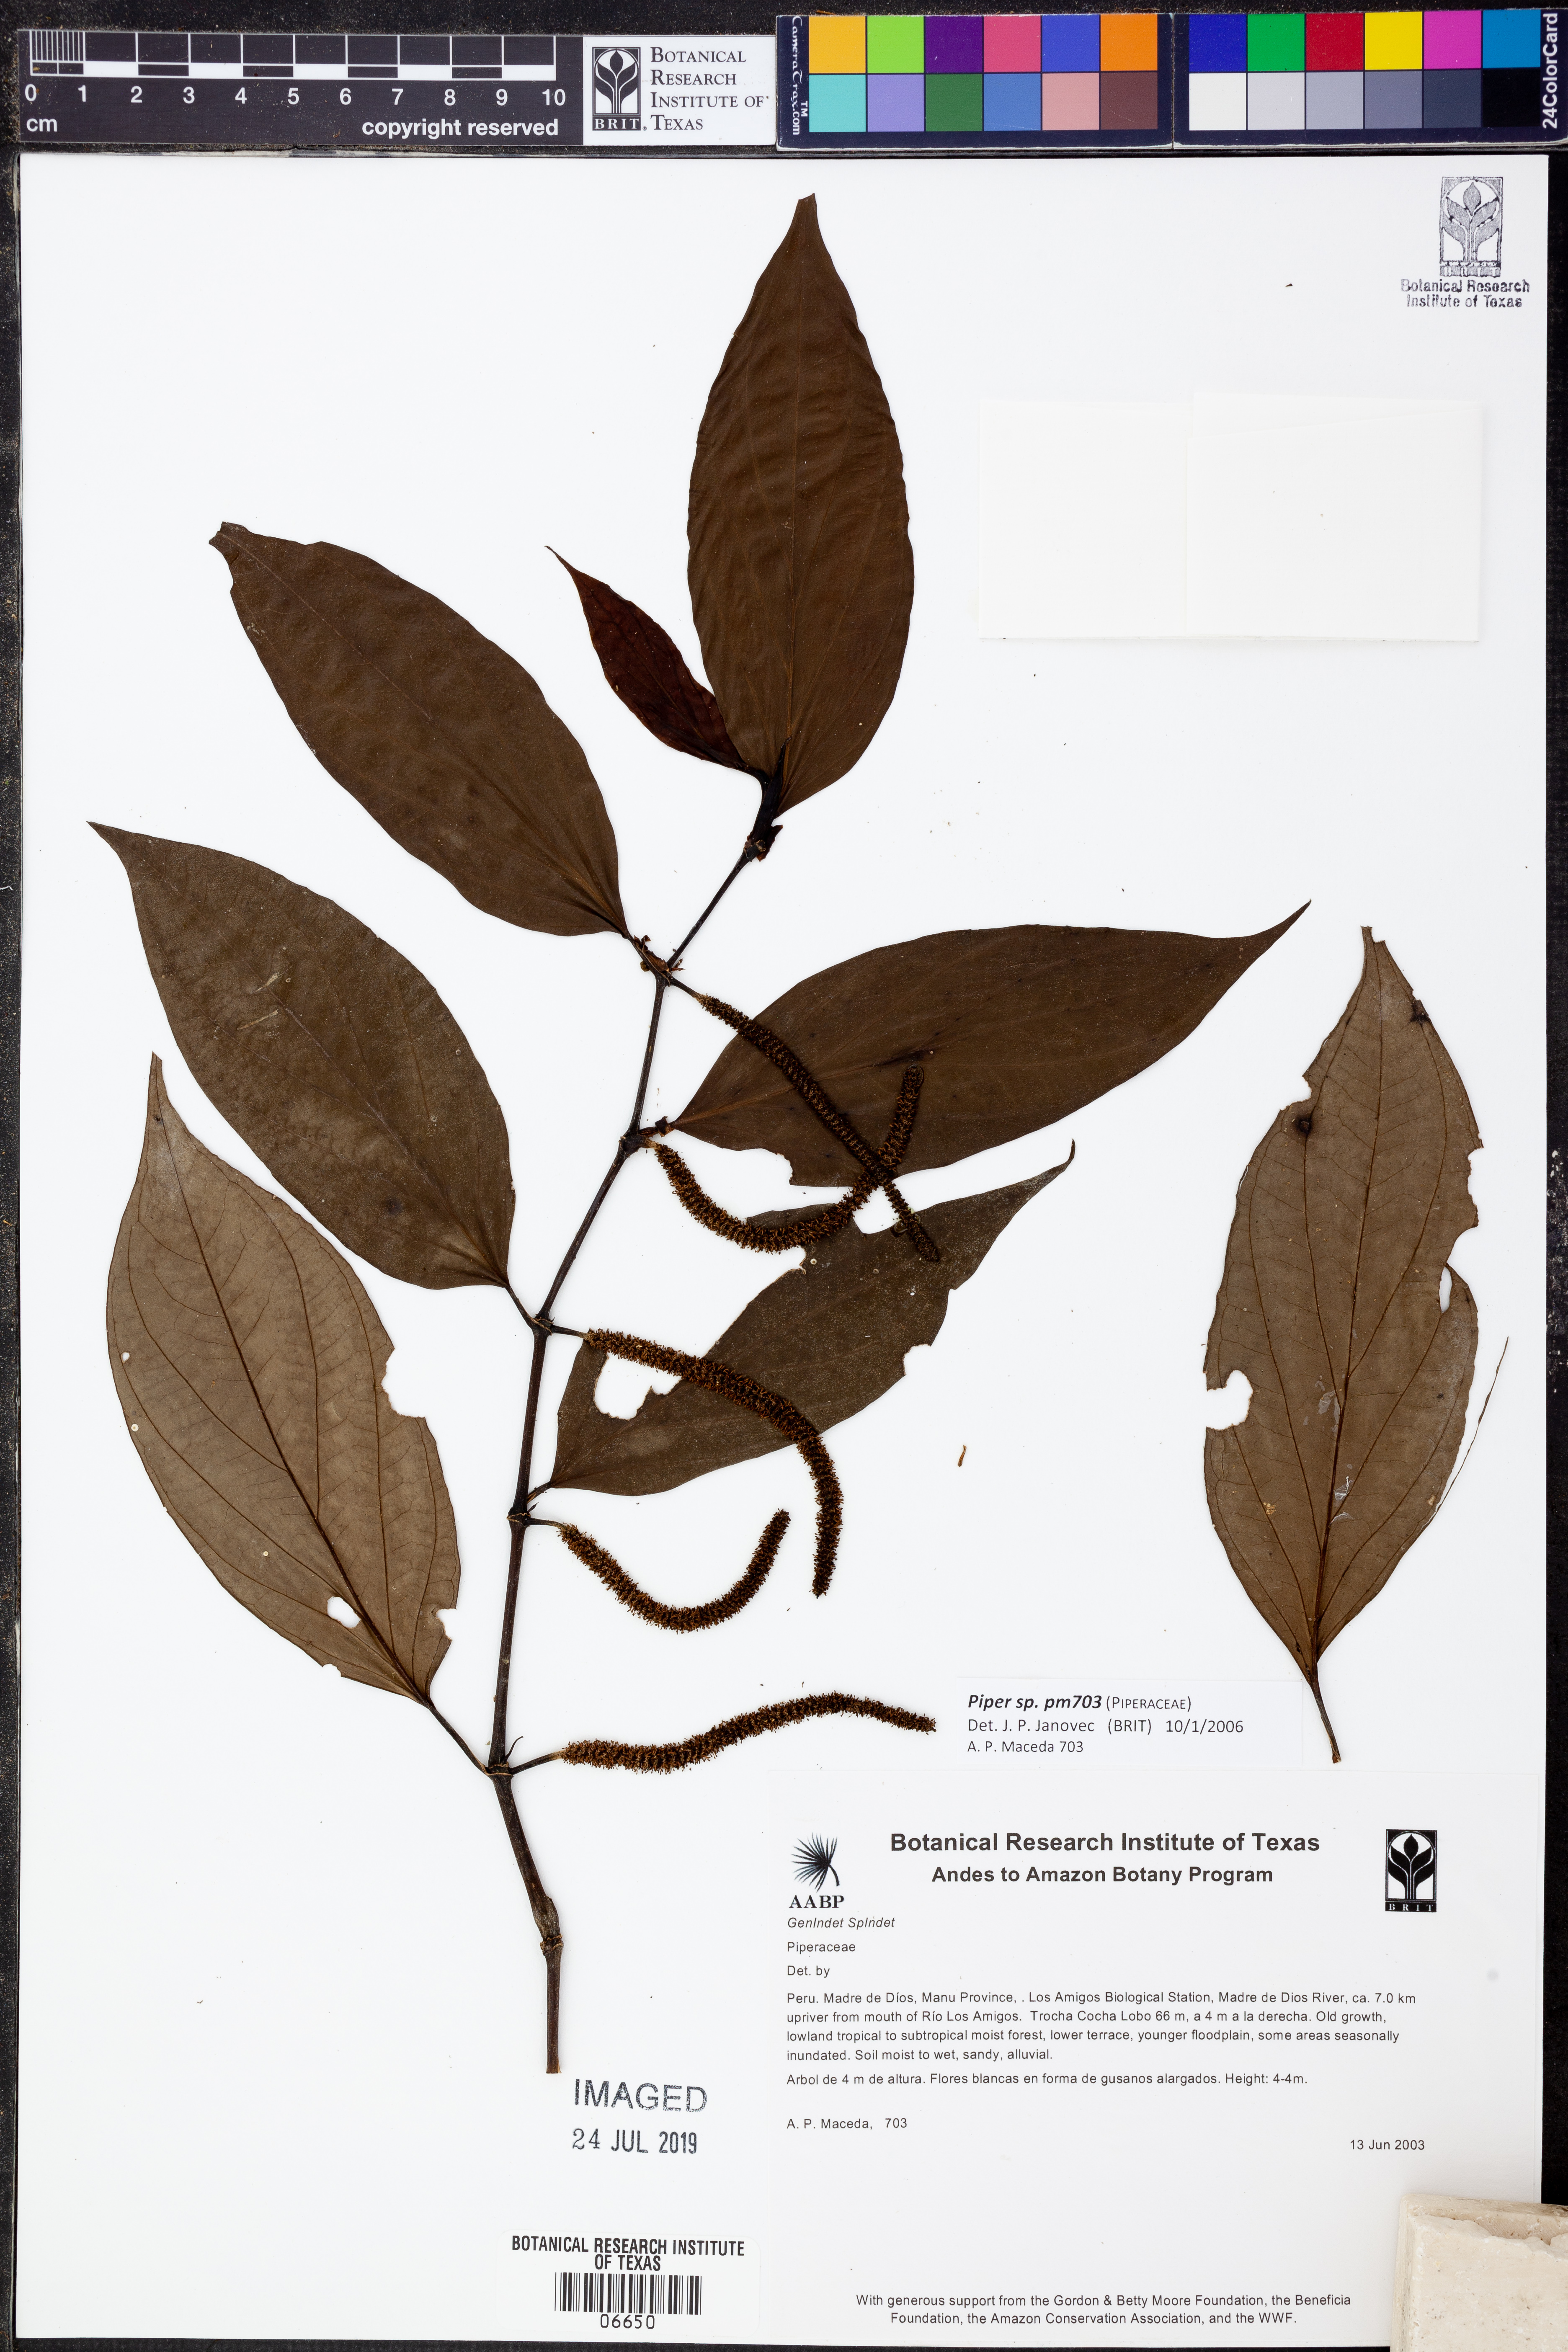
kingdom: Plantae
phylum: Tracheophyta
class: Magnoliopsida
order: Piperales
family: Piperaceae
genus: Piper
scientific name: Piper
